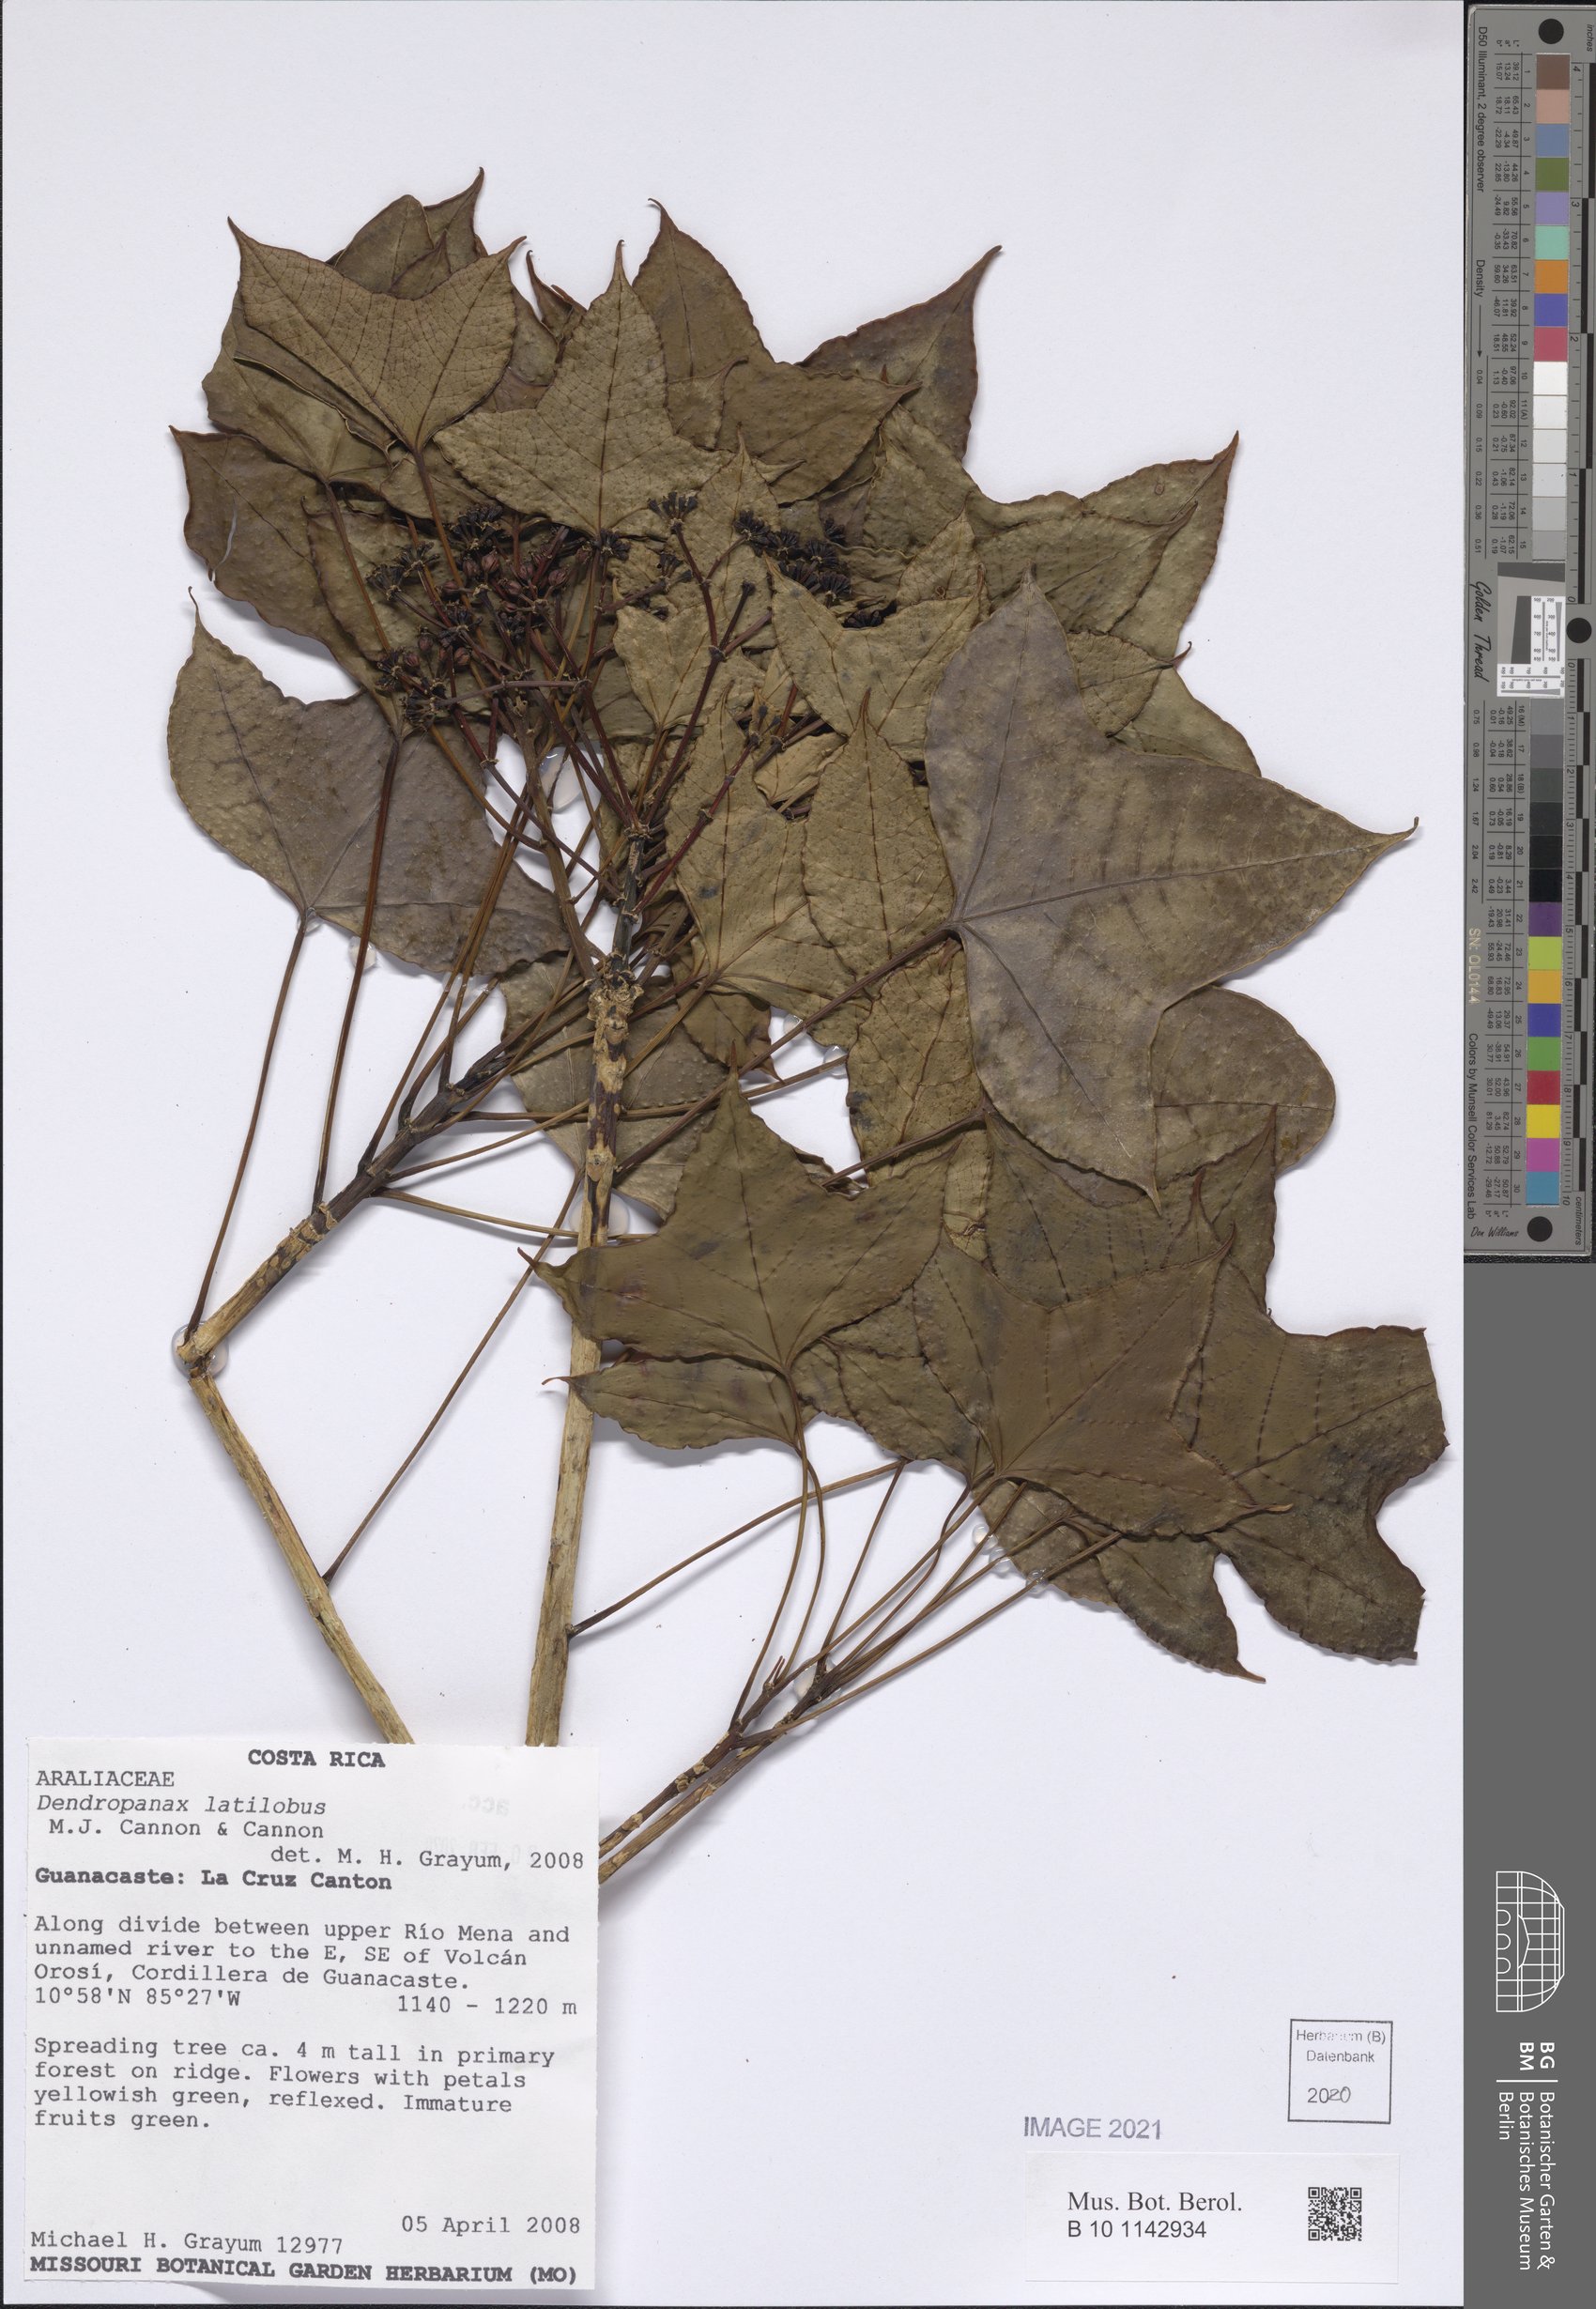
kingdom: Plantae
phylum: Tracheophyta
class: Magnoliopsida
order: Apiales
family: Araliaceae
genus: Dendropanax
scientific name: Dendropanax latilobus
